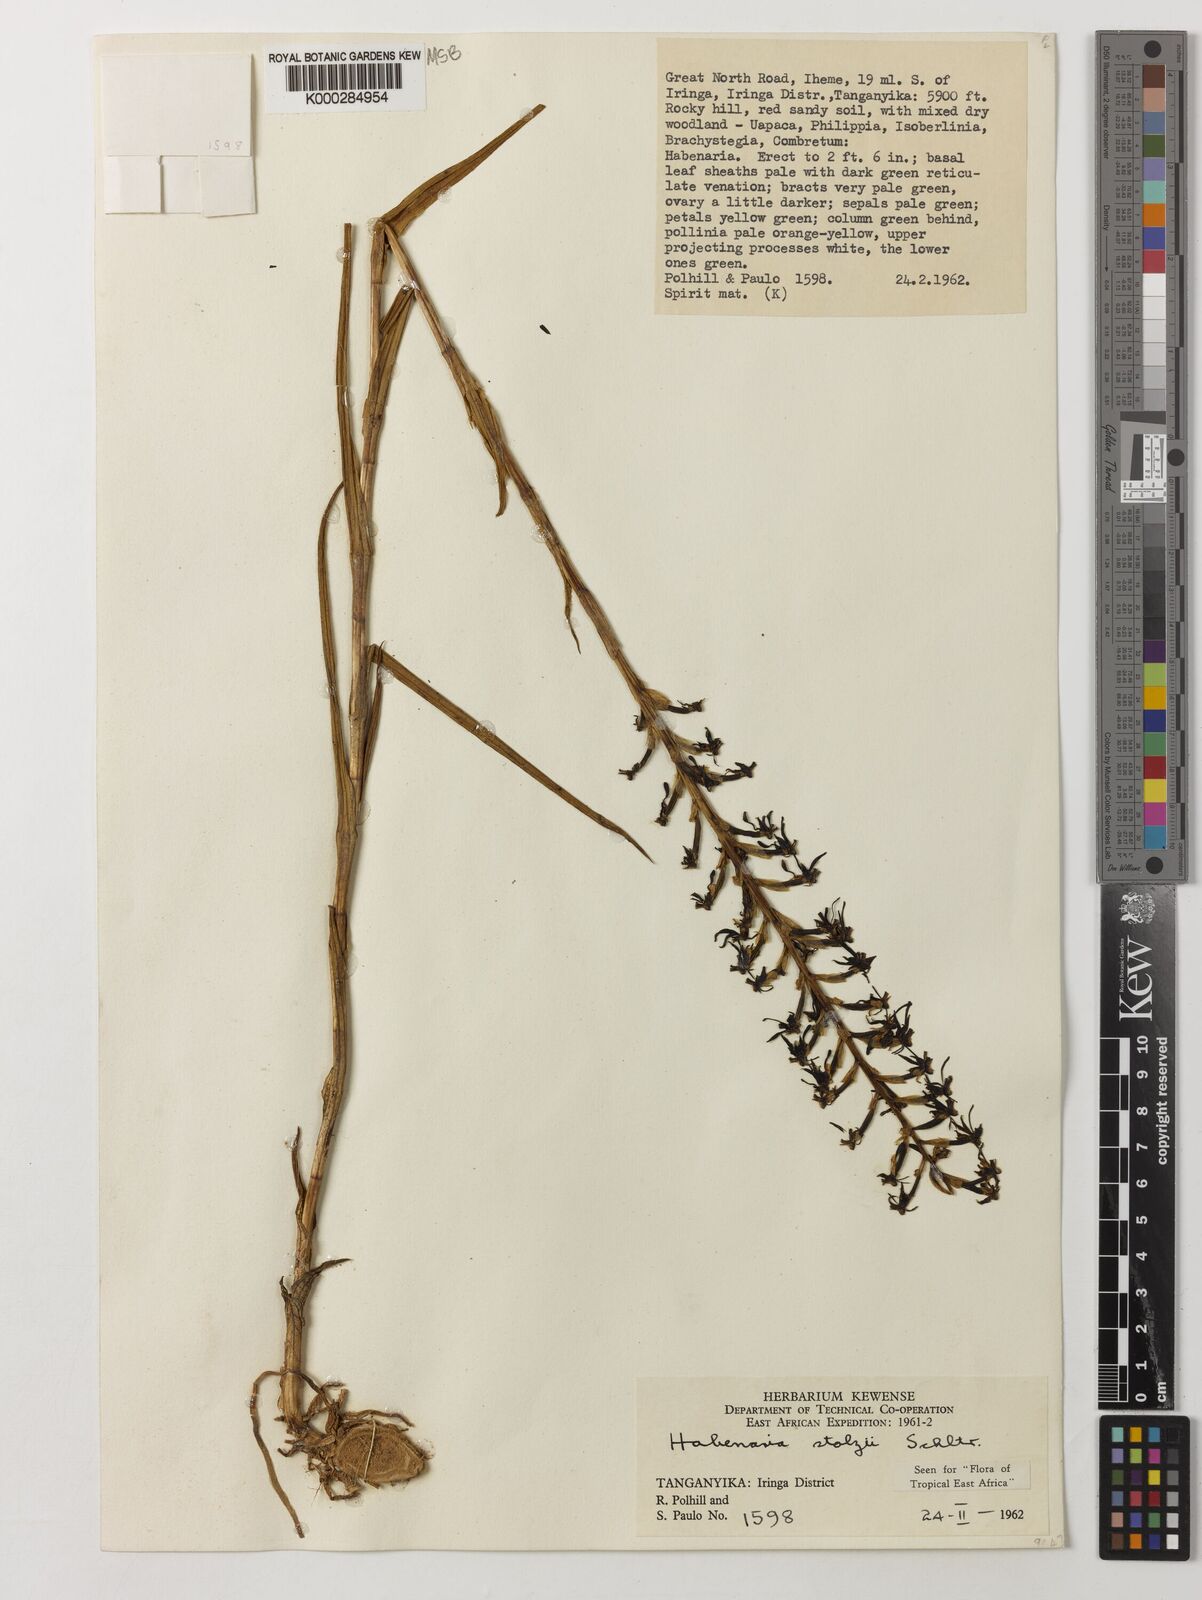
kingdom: Plantae
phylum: Tracheophyta
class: Liliopsida
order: Asparagales
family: Orchidaceae
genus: Habenaria
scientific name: Habenaria tortilis
